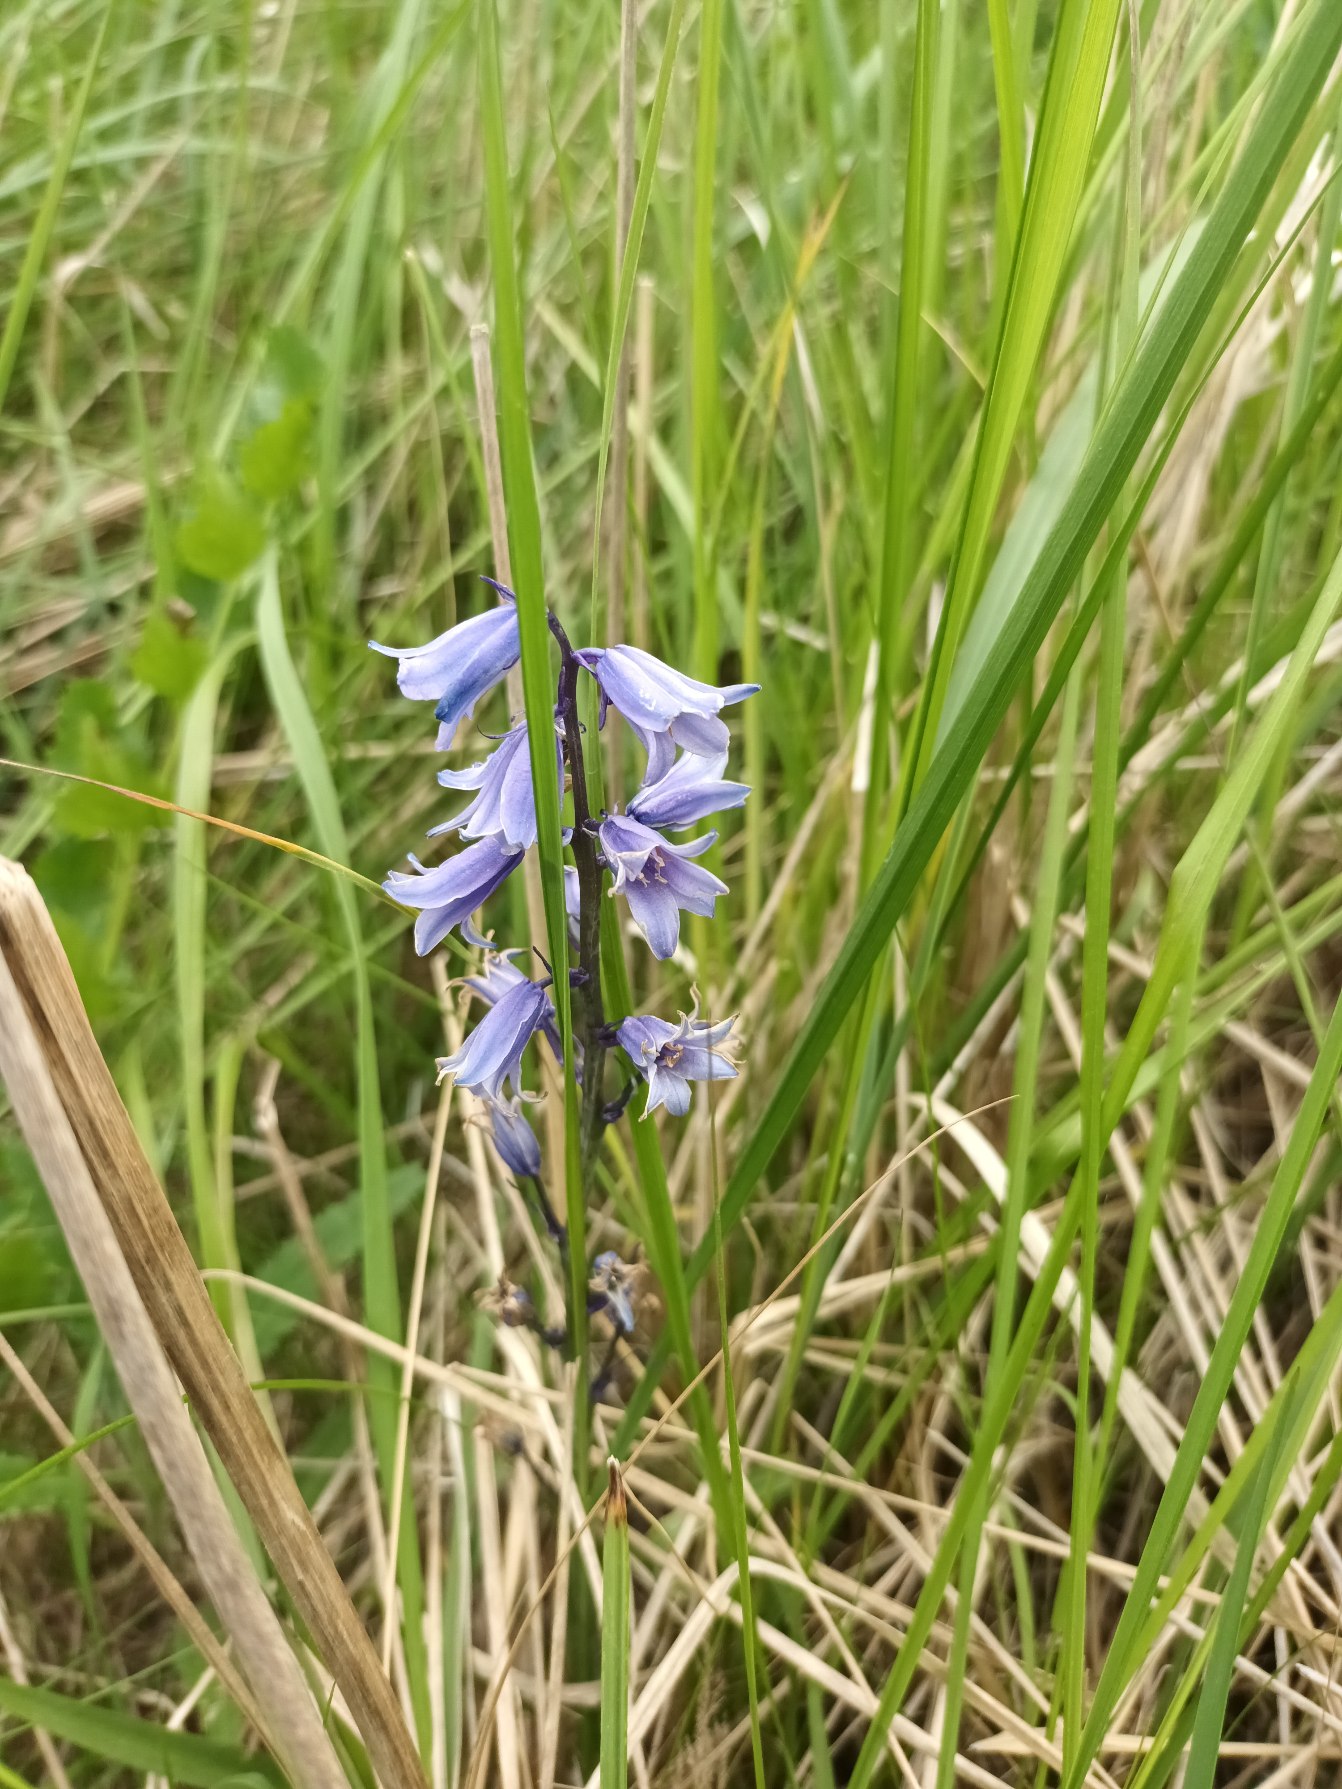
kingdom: Plantae
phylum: Tracheophyta
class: Liliopsida
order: Asparagales
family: Asparagaceae
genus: Hyacinthoides
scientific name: Hyacinthoides massartiana
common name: Hybrid-klokkeskilla
